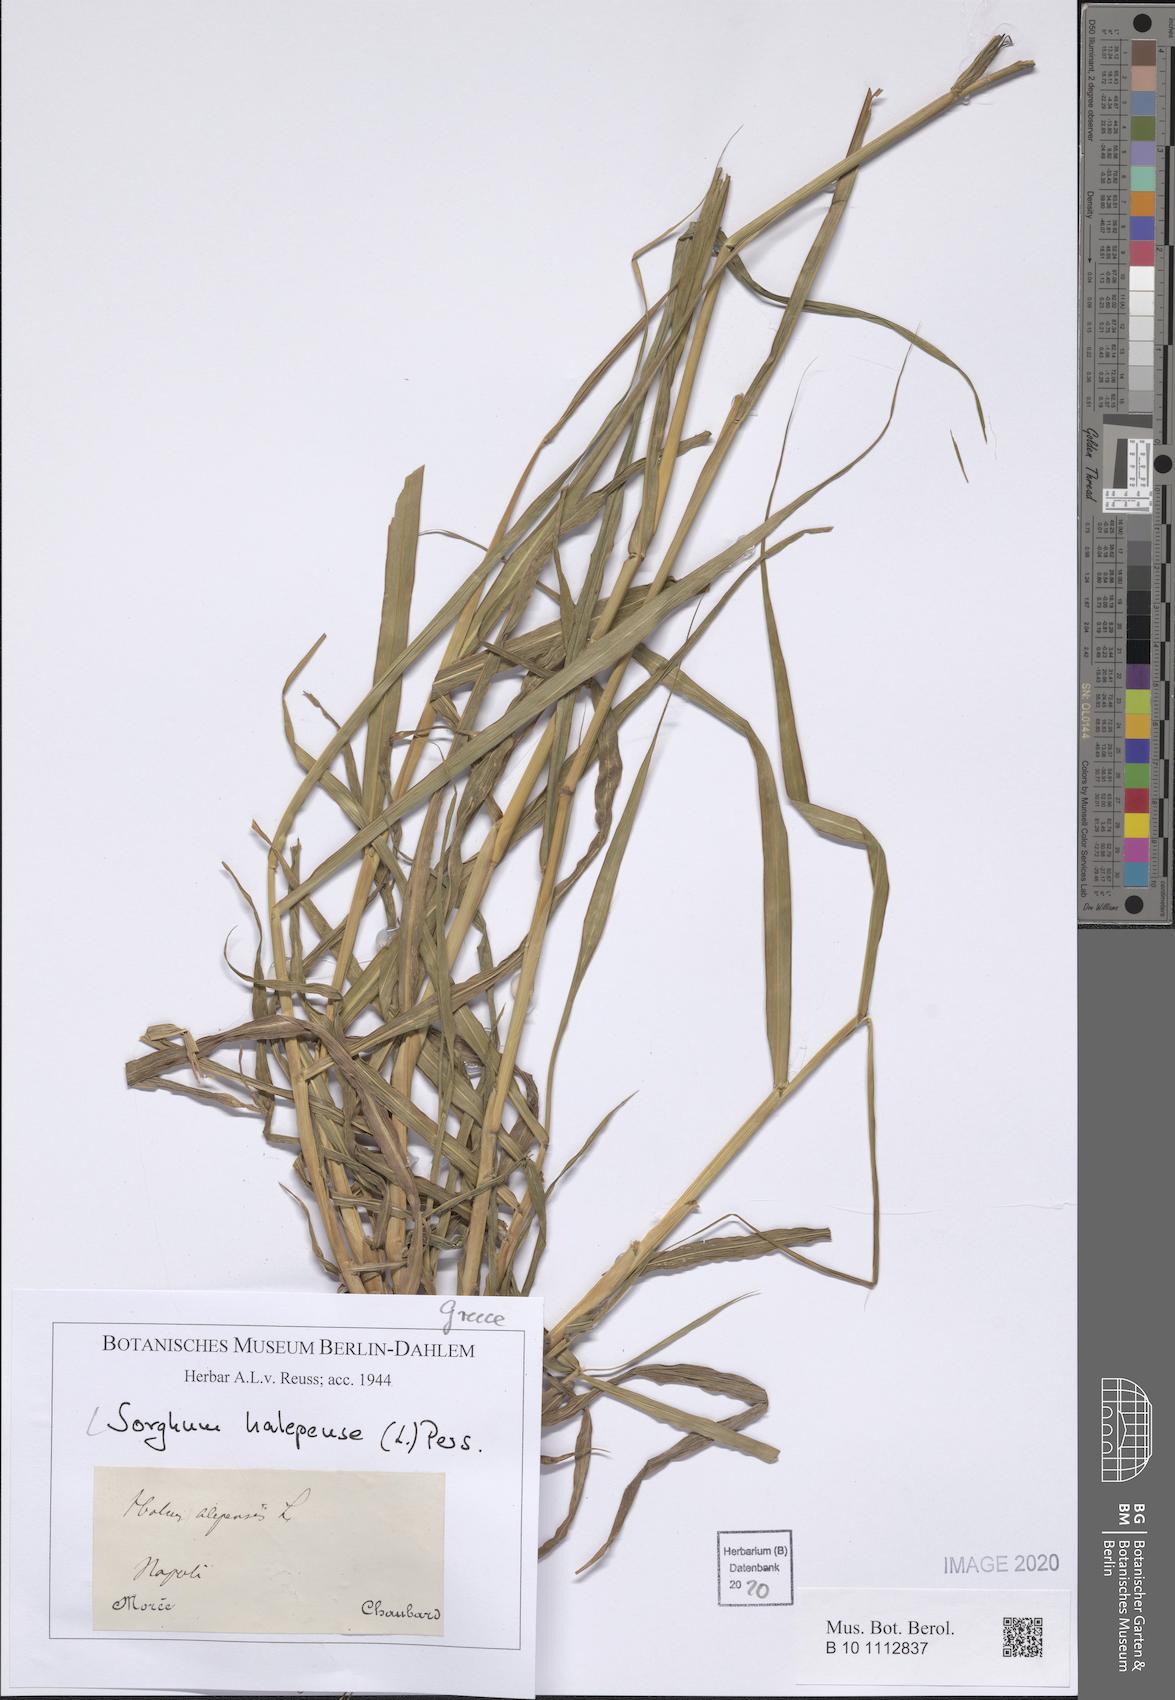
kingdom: Plantae
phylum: Tracheophyta
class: Liliopsida
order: Poales
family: Poaceae
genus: Sorghum
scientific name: Sorghum halepense
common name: Johnson-grass
